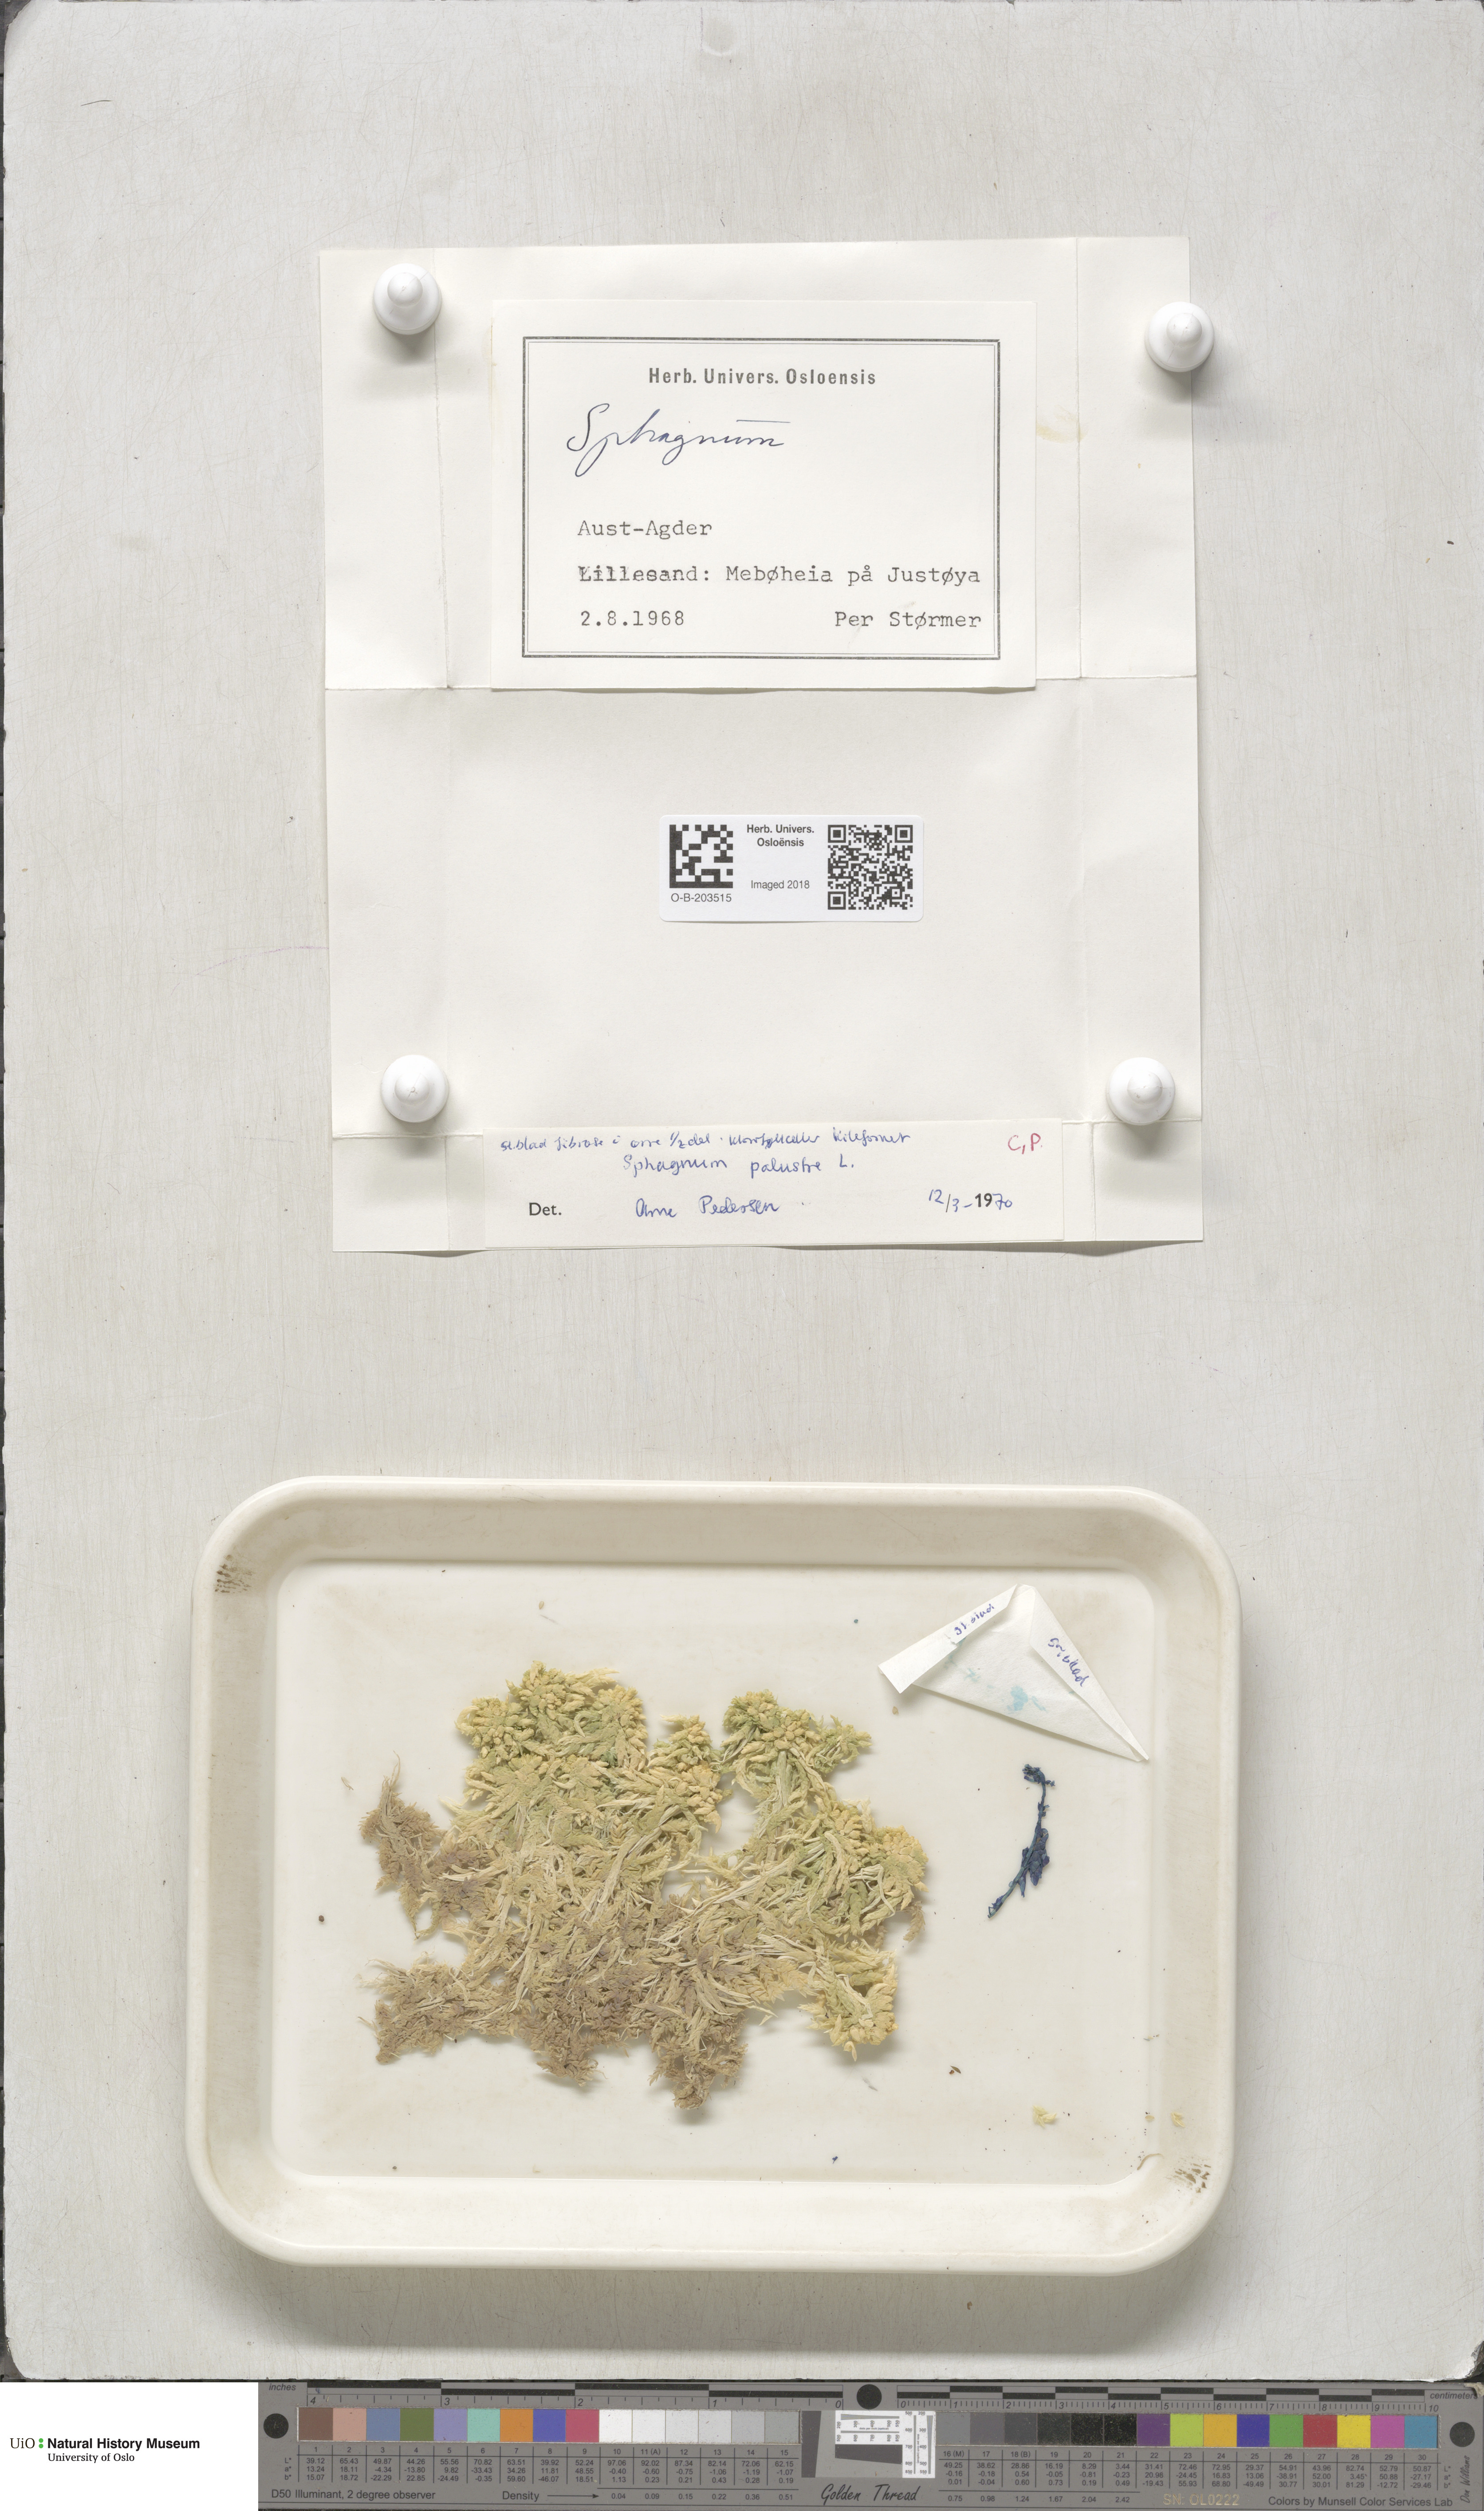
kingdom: Plantae
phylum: Bryophyta
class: Sphagnopsida
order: Sphagnales
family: Sphagnaceae
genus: Sphagnum
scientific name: Sphagnum palustre
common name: Blunt-leaved bog-moss
